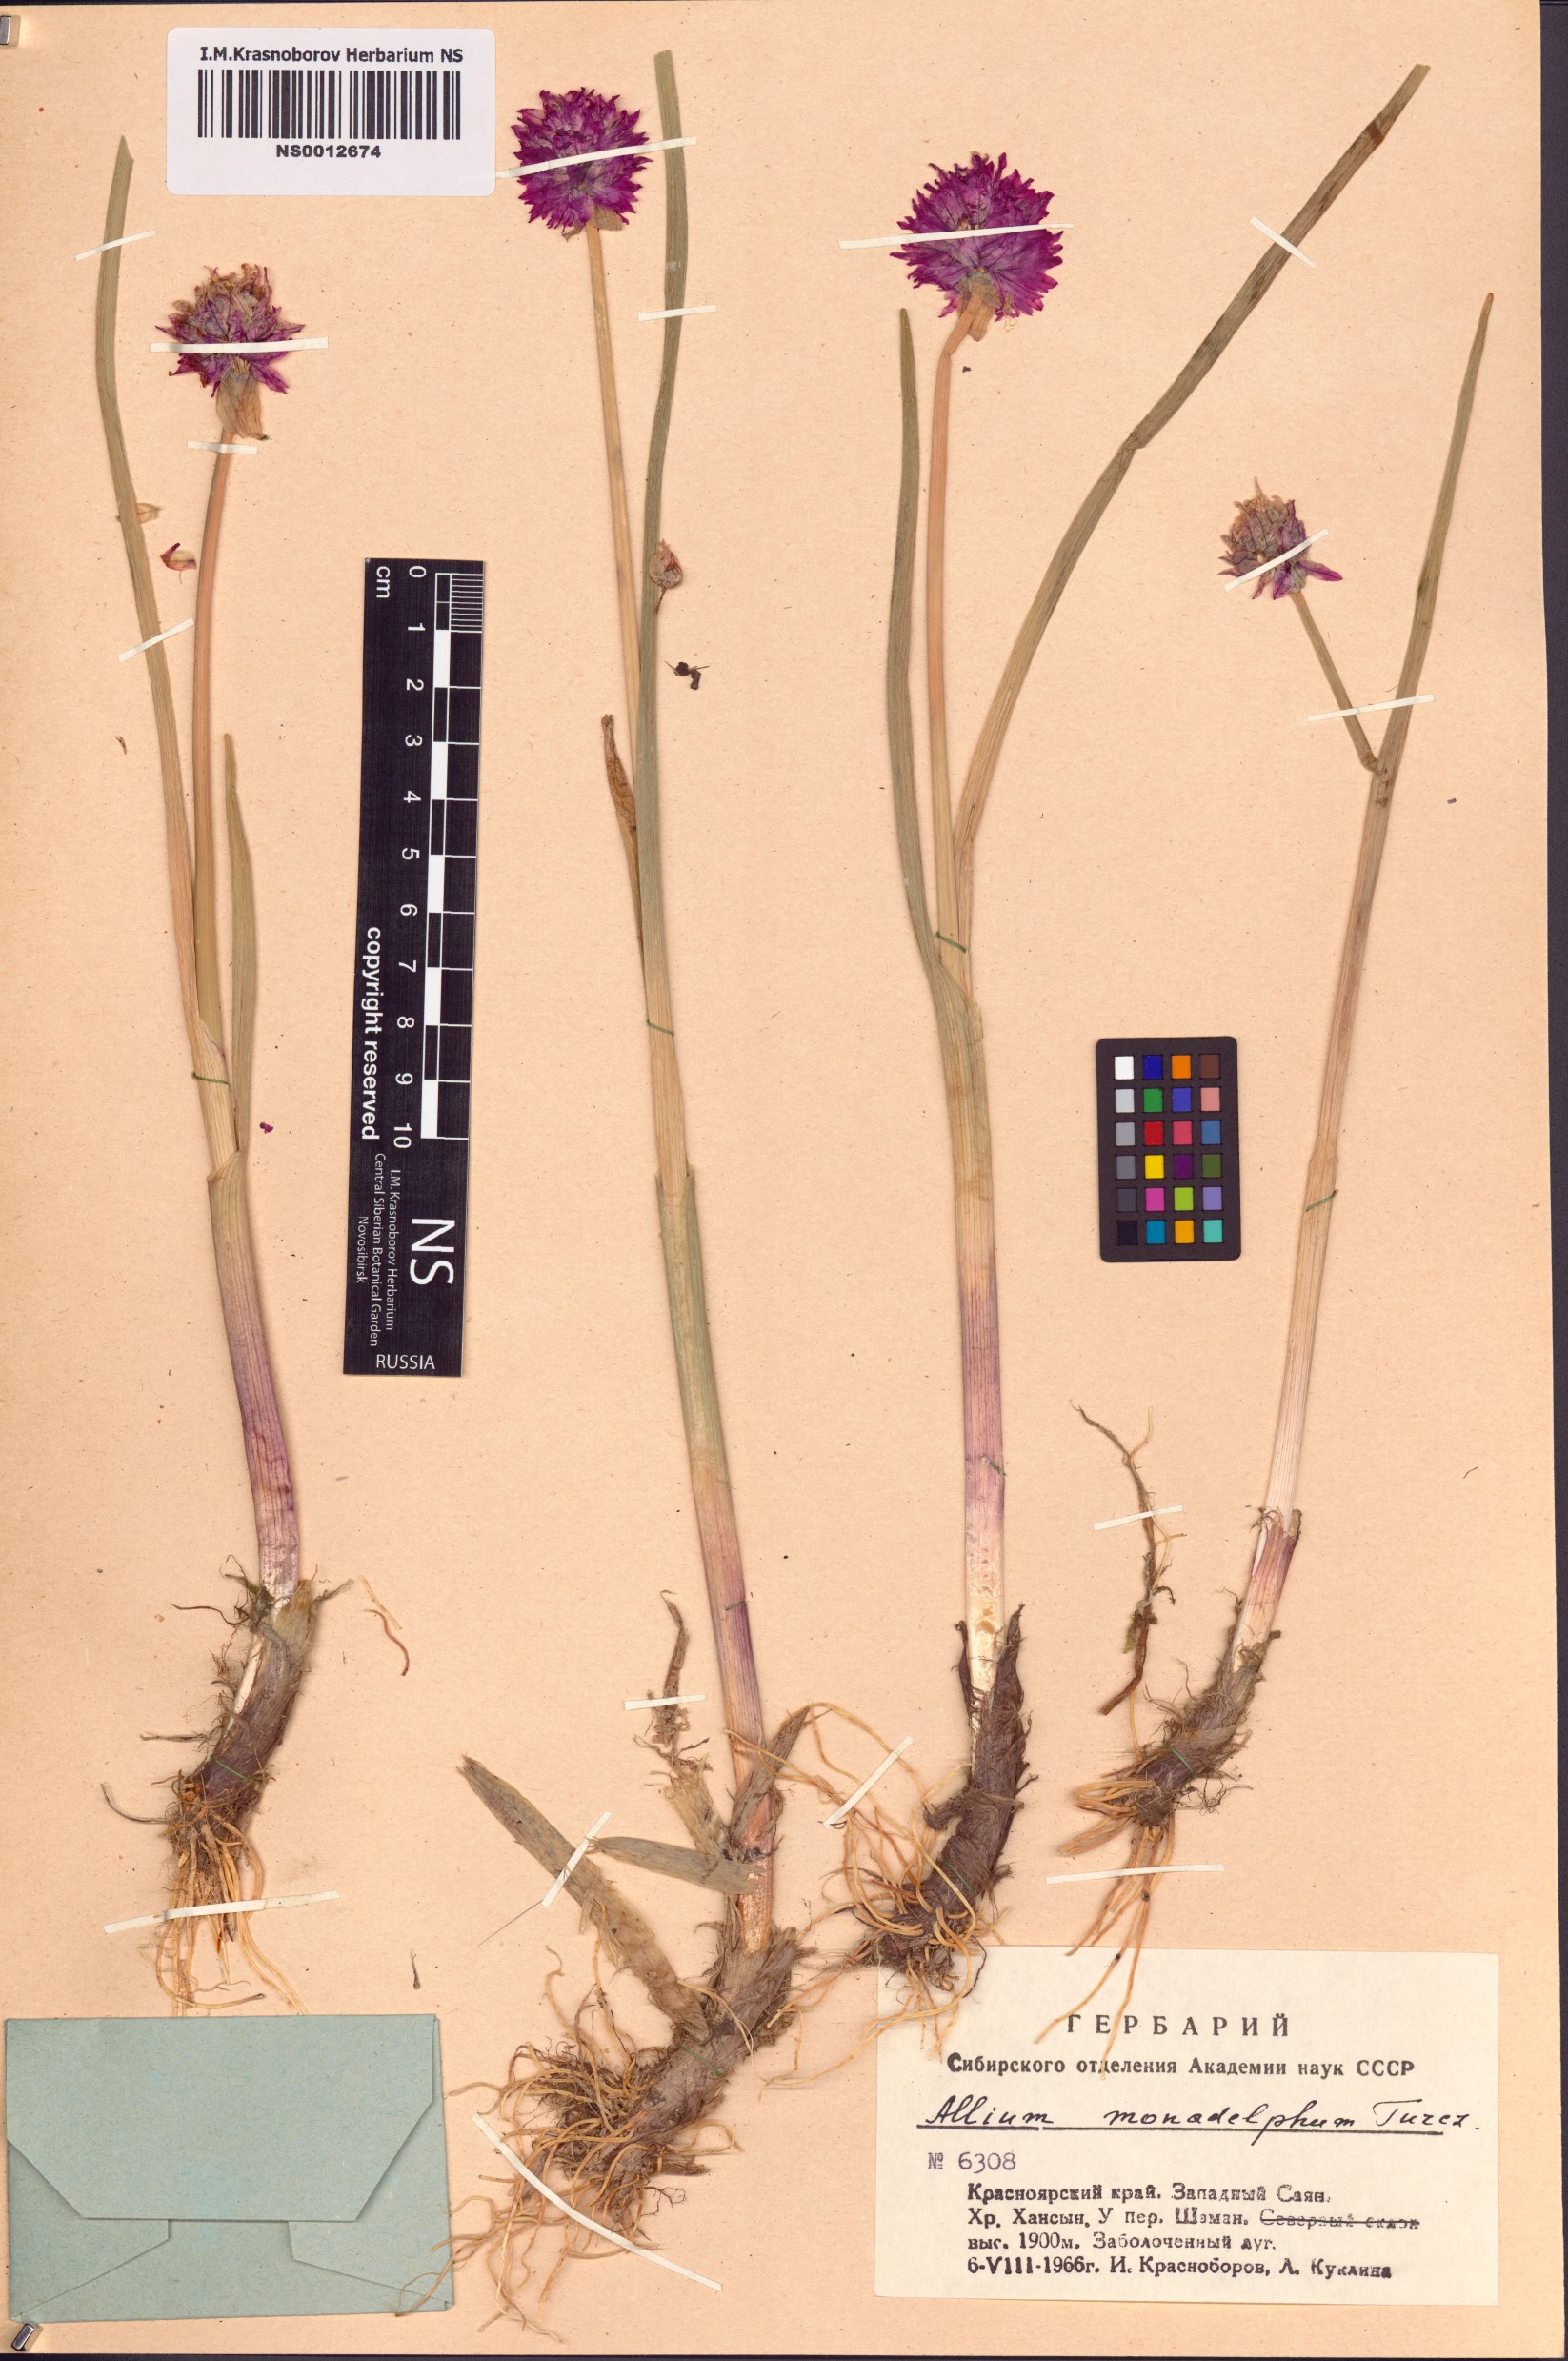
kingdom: Plantae
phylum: Tracheophyta
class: Liliopsida
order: Asparagales
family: Amaryllidaceae
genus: Allium
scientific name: Allium atrosanguineum
